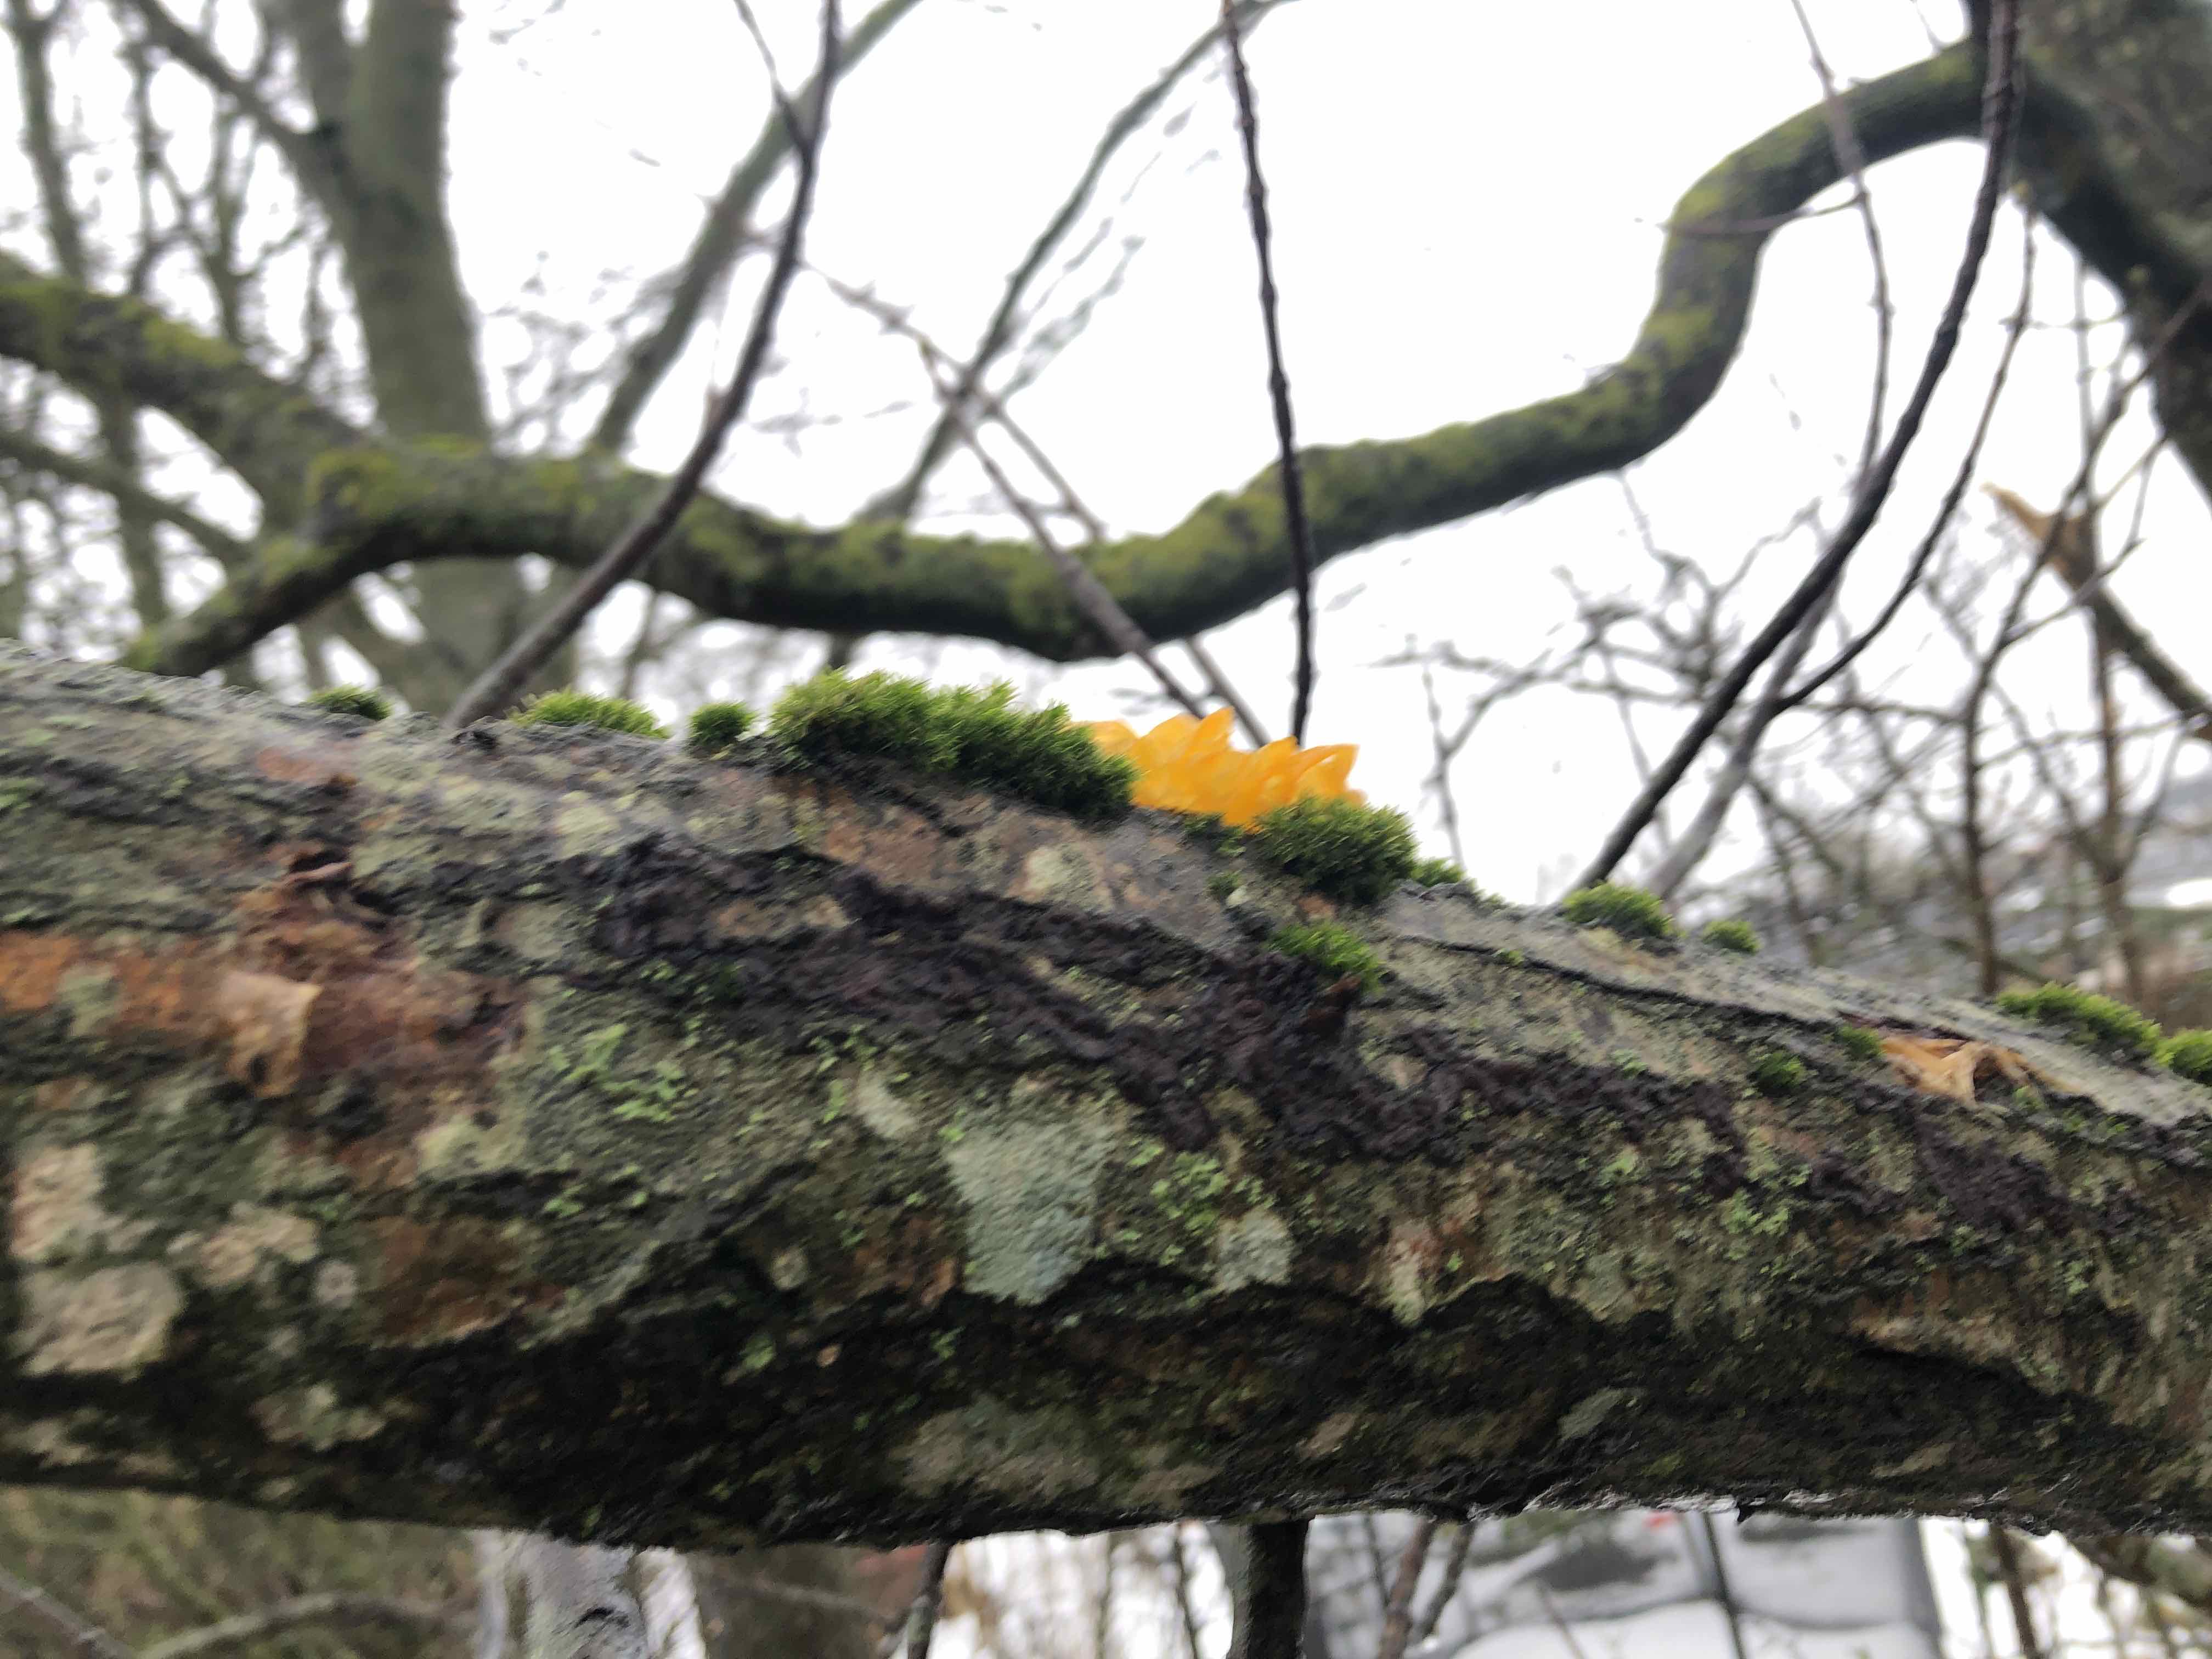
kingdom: Fungi
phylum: Basidiomycota
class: Tremellomycetes
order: Tremellales
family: Tremellaceae
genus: Tremella
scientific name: Tremella mesenterica
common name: gul bævresvamp
